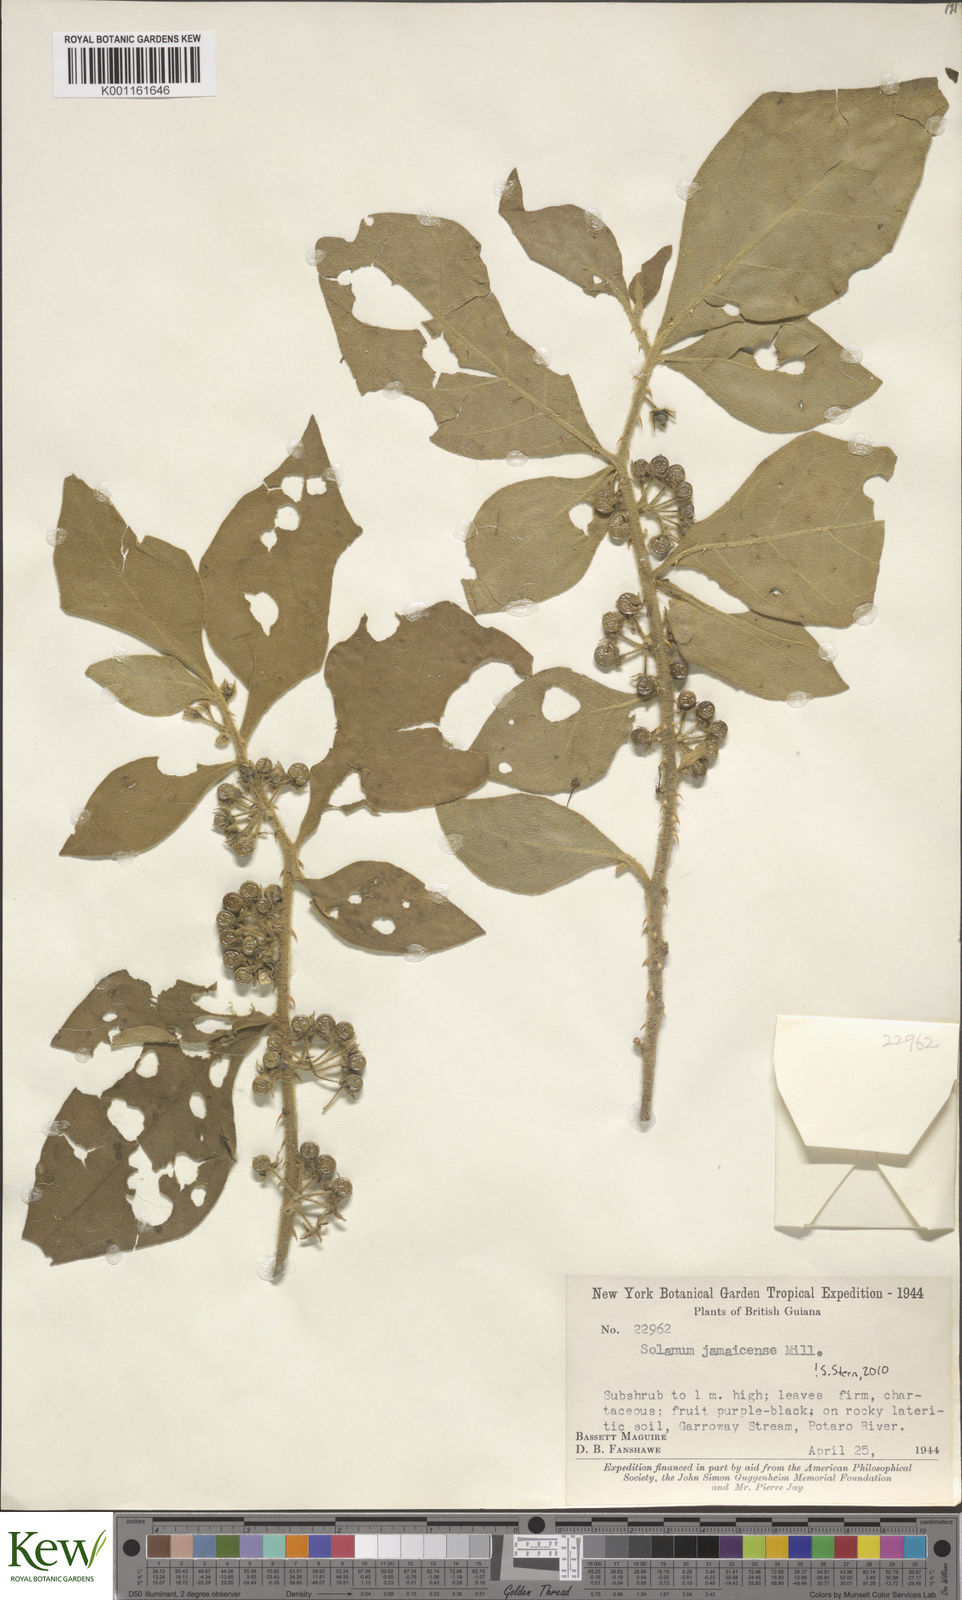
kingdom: Plantae
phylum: Tracheophyta
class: Magnoliopsida
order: Solanales
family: Solanaceae
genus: Solanum
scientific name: Solanum jamaicense
